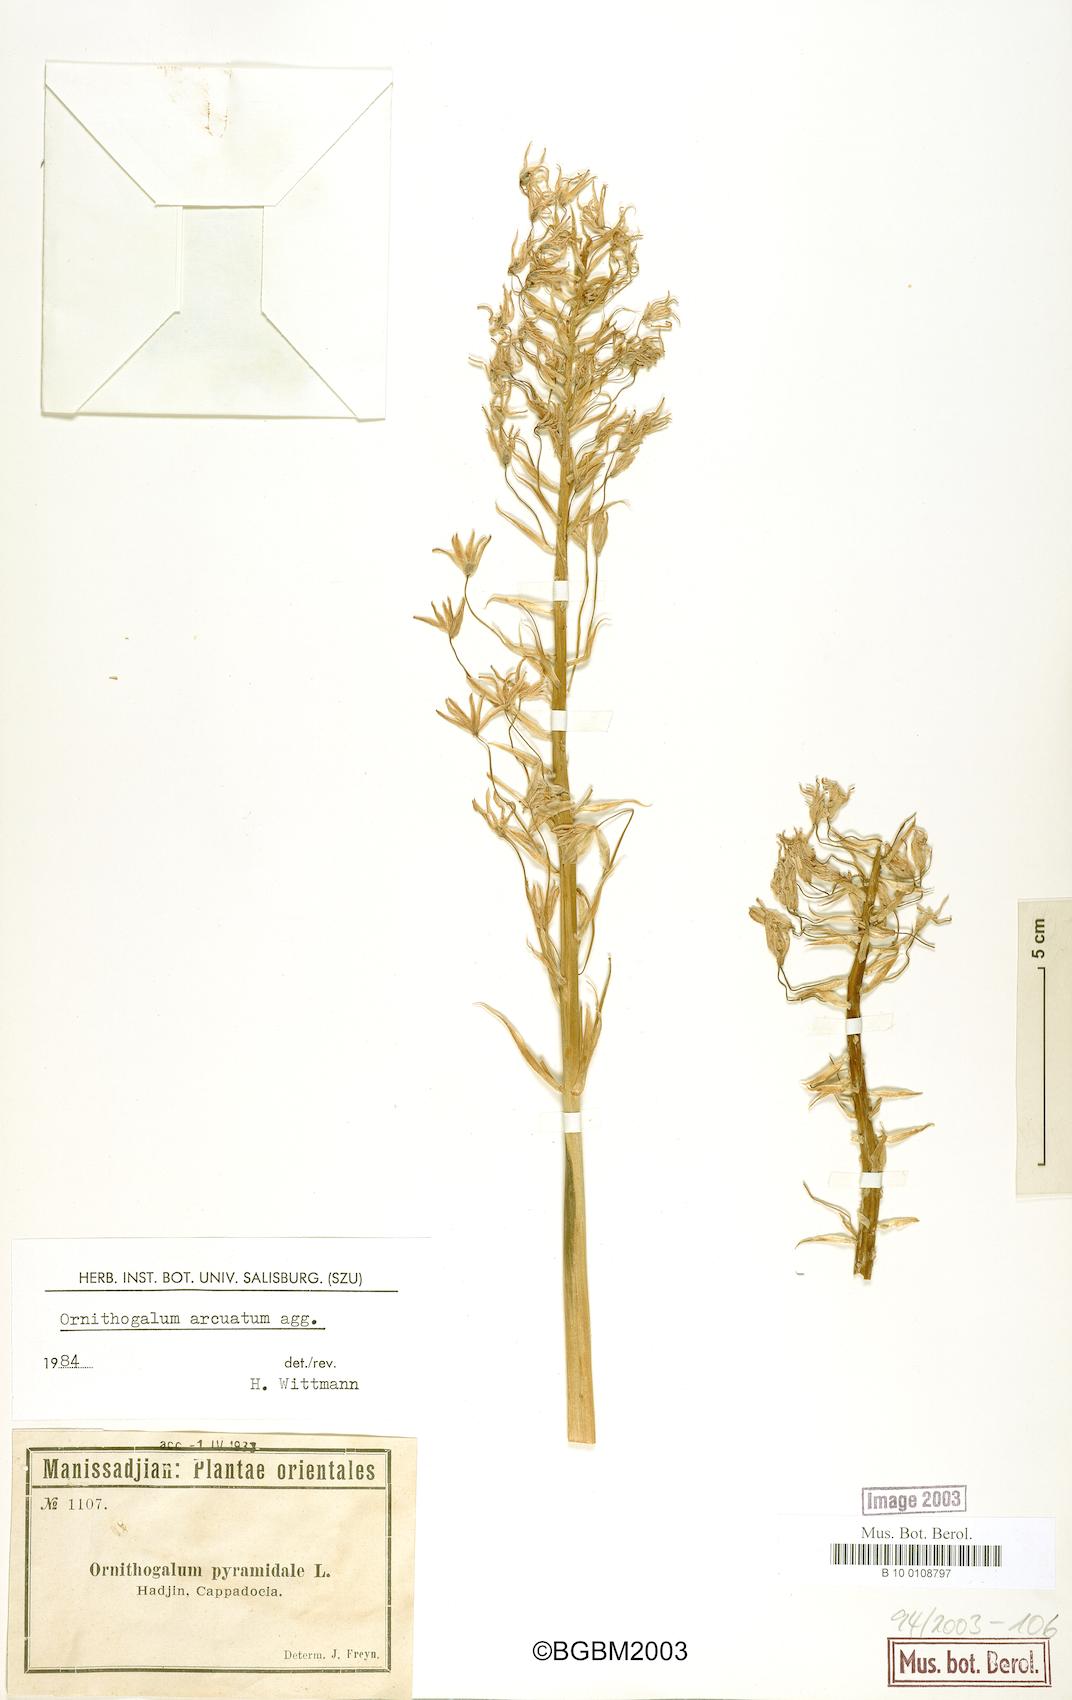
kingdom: Plantae
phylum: Tracheophyta
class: Liliopsida
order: Asparagales
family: Asparagaceae
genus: Ornithogalum
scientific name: Ornithogalum arcuatum
